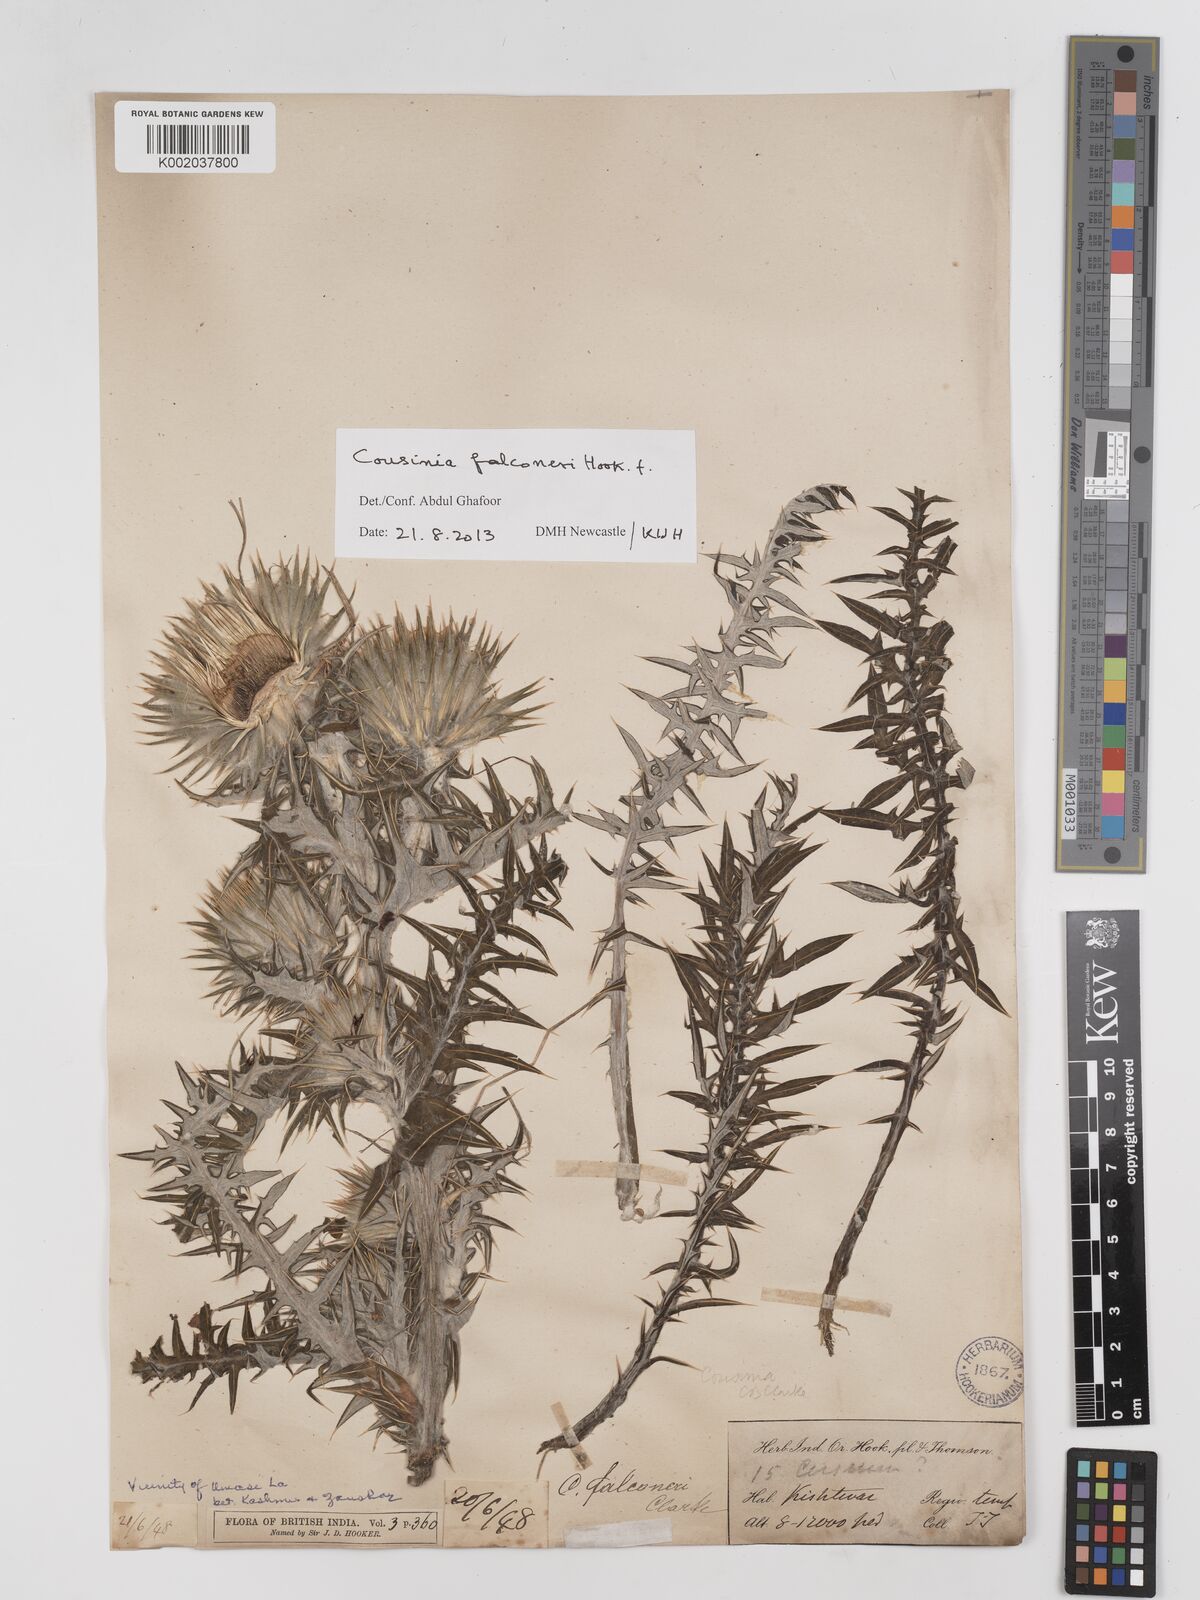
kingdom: Plantae
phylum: Tracheophyta
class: Magnoliopsida
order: Asterales
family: Asteraceae
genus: Cousinia
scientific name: Cousinia
